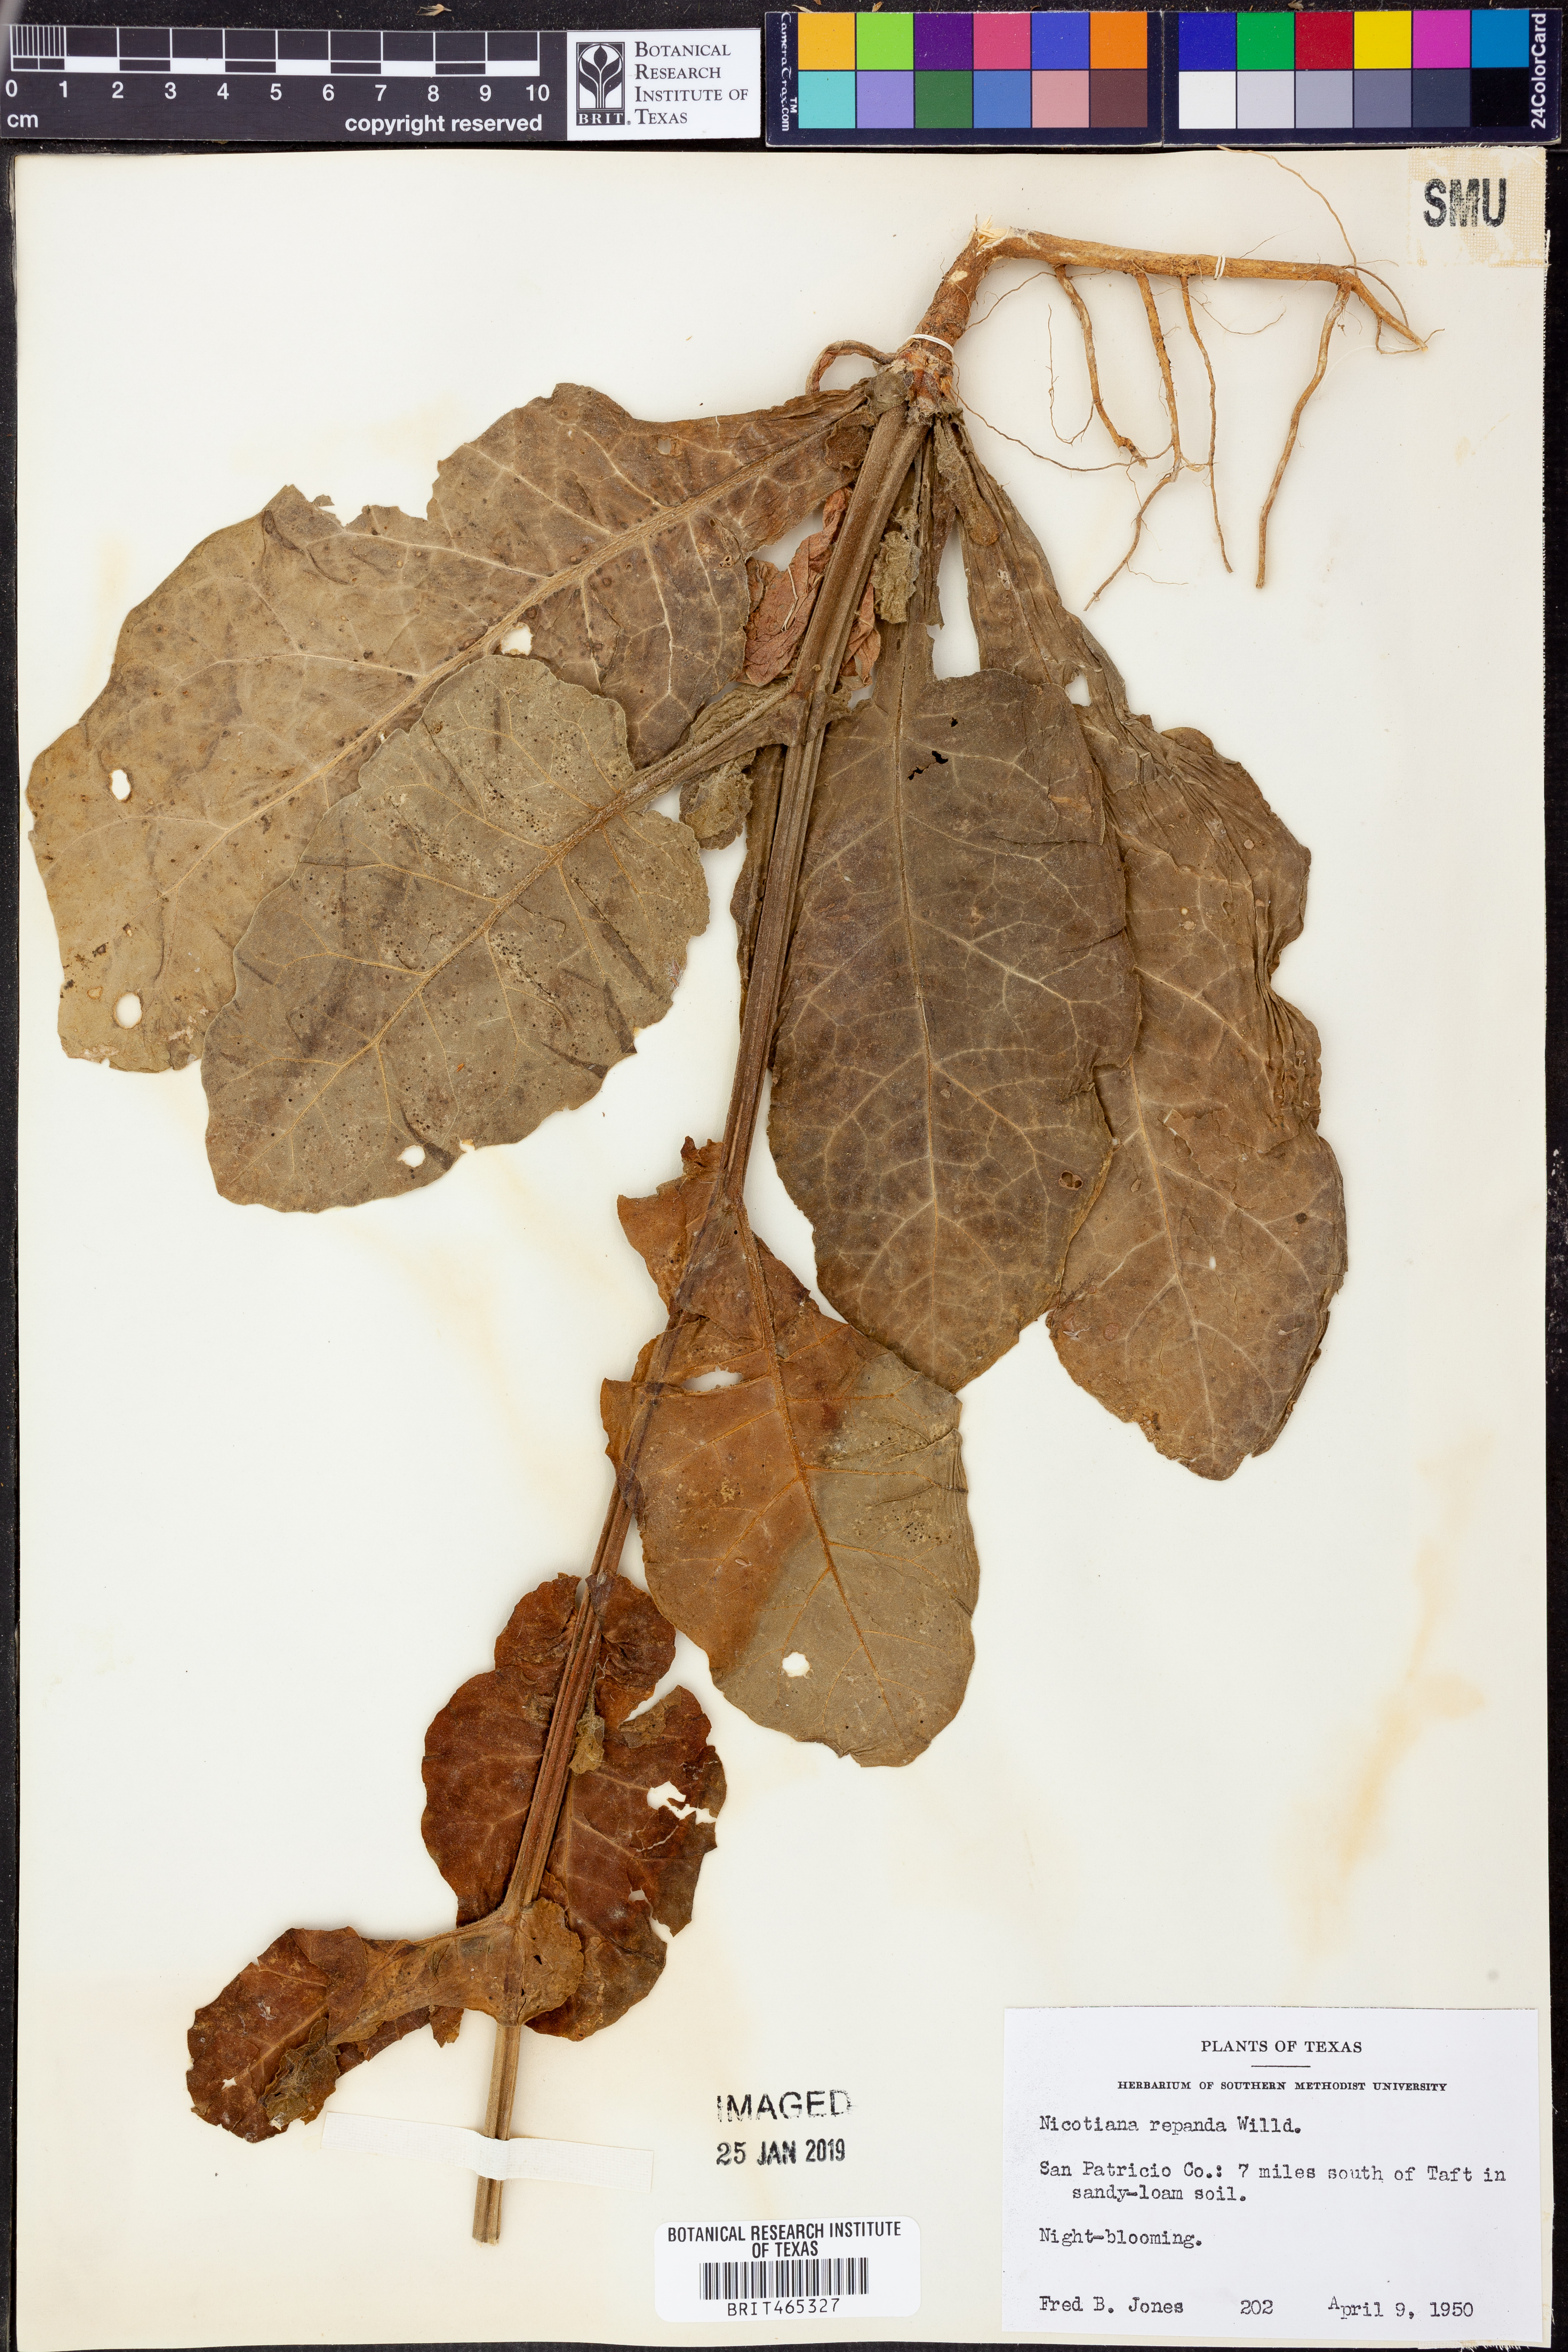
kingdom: Plantae
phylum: Tracheophyta
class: Magnoliopsida
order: Solanales
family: Solanaceae
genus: Nicotiana
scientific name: Nicotiana repanda
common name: Fiddle-leaf tobacco
